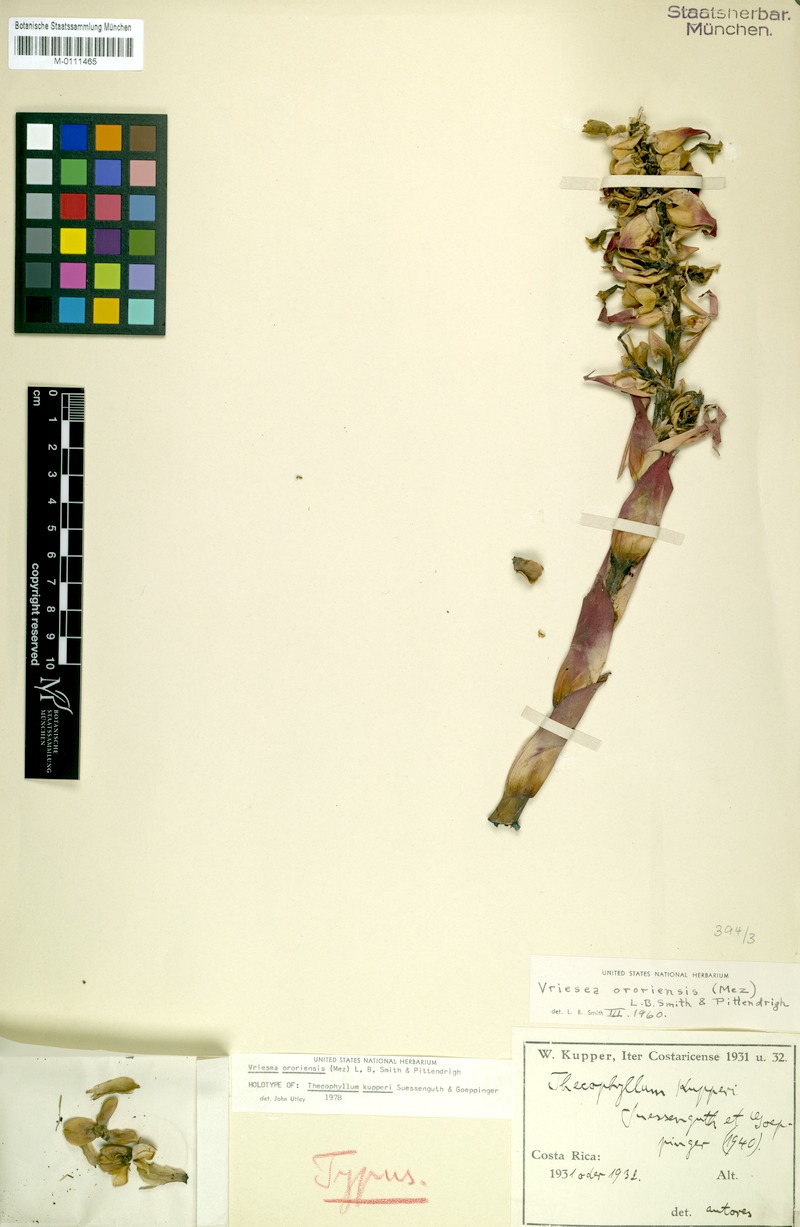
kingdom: Plantae
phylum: Tracheophyta
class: Liliopsida
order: Poales
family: Bromeliaceae
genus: Werauhia
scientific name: Werauhia ororiensis
